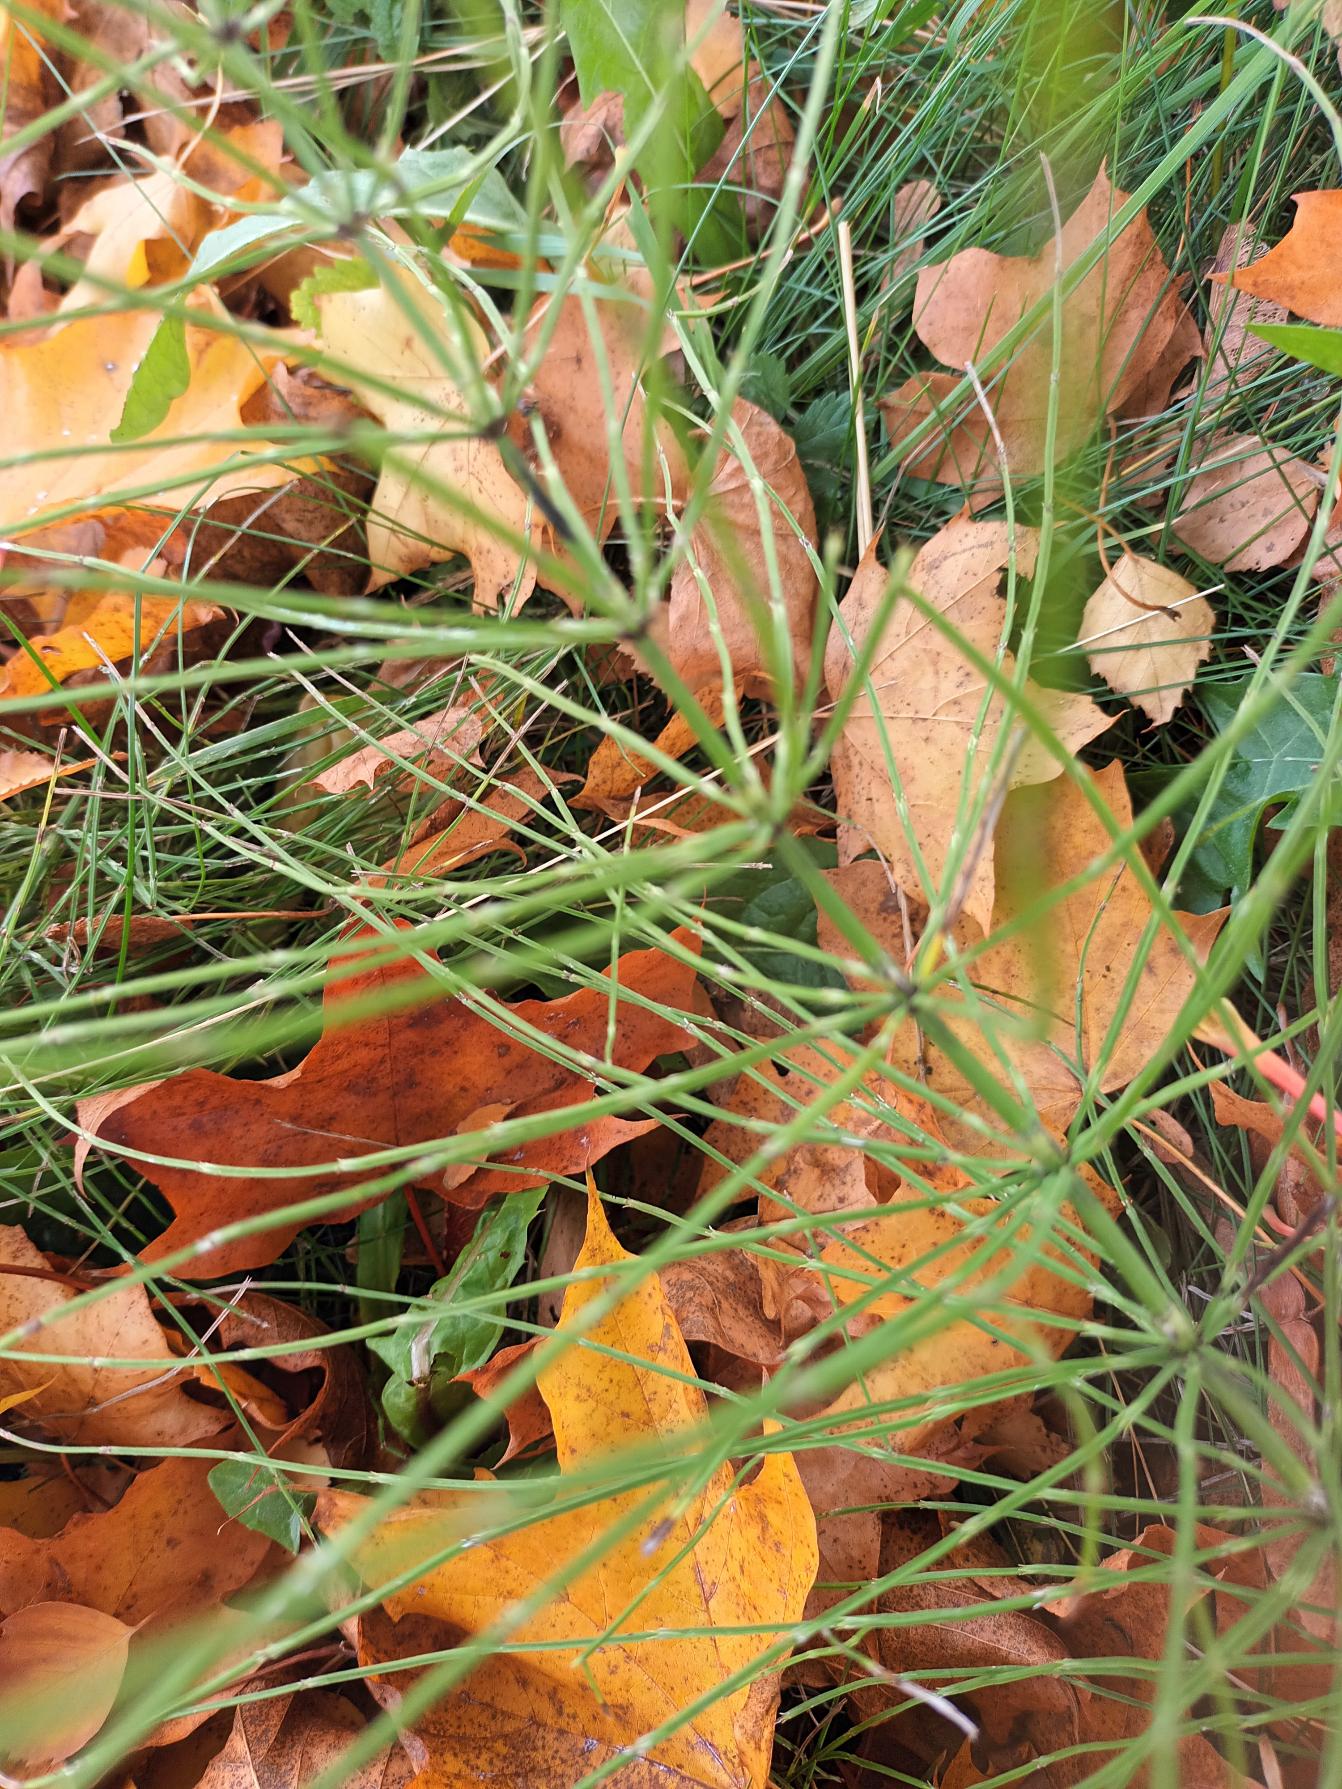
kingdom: Plantae
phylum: Tracheophyta
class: Polypodiopsida
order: Equisetales
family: Equisetaceae
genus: Equisetum
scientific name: Equisetum arvense
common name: Ager-padderok
